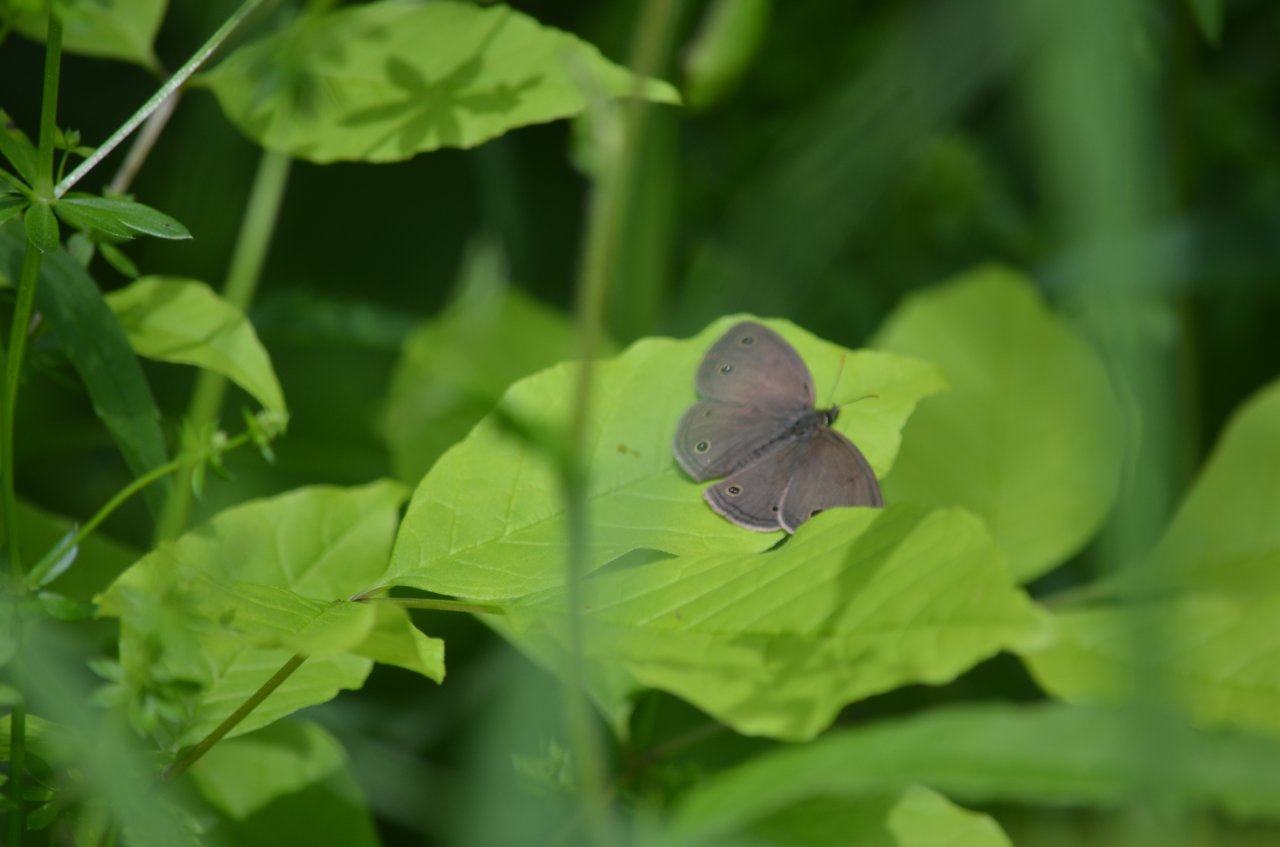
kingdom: Animalia
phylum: Arthropoda
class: Insecta
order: Lepidoptera
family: Nymphalidae
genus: Euptychia
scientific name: Euptychia cymela
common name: Little Wood Satyr
